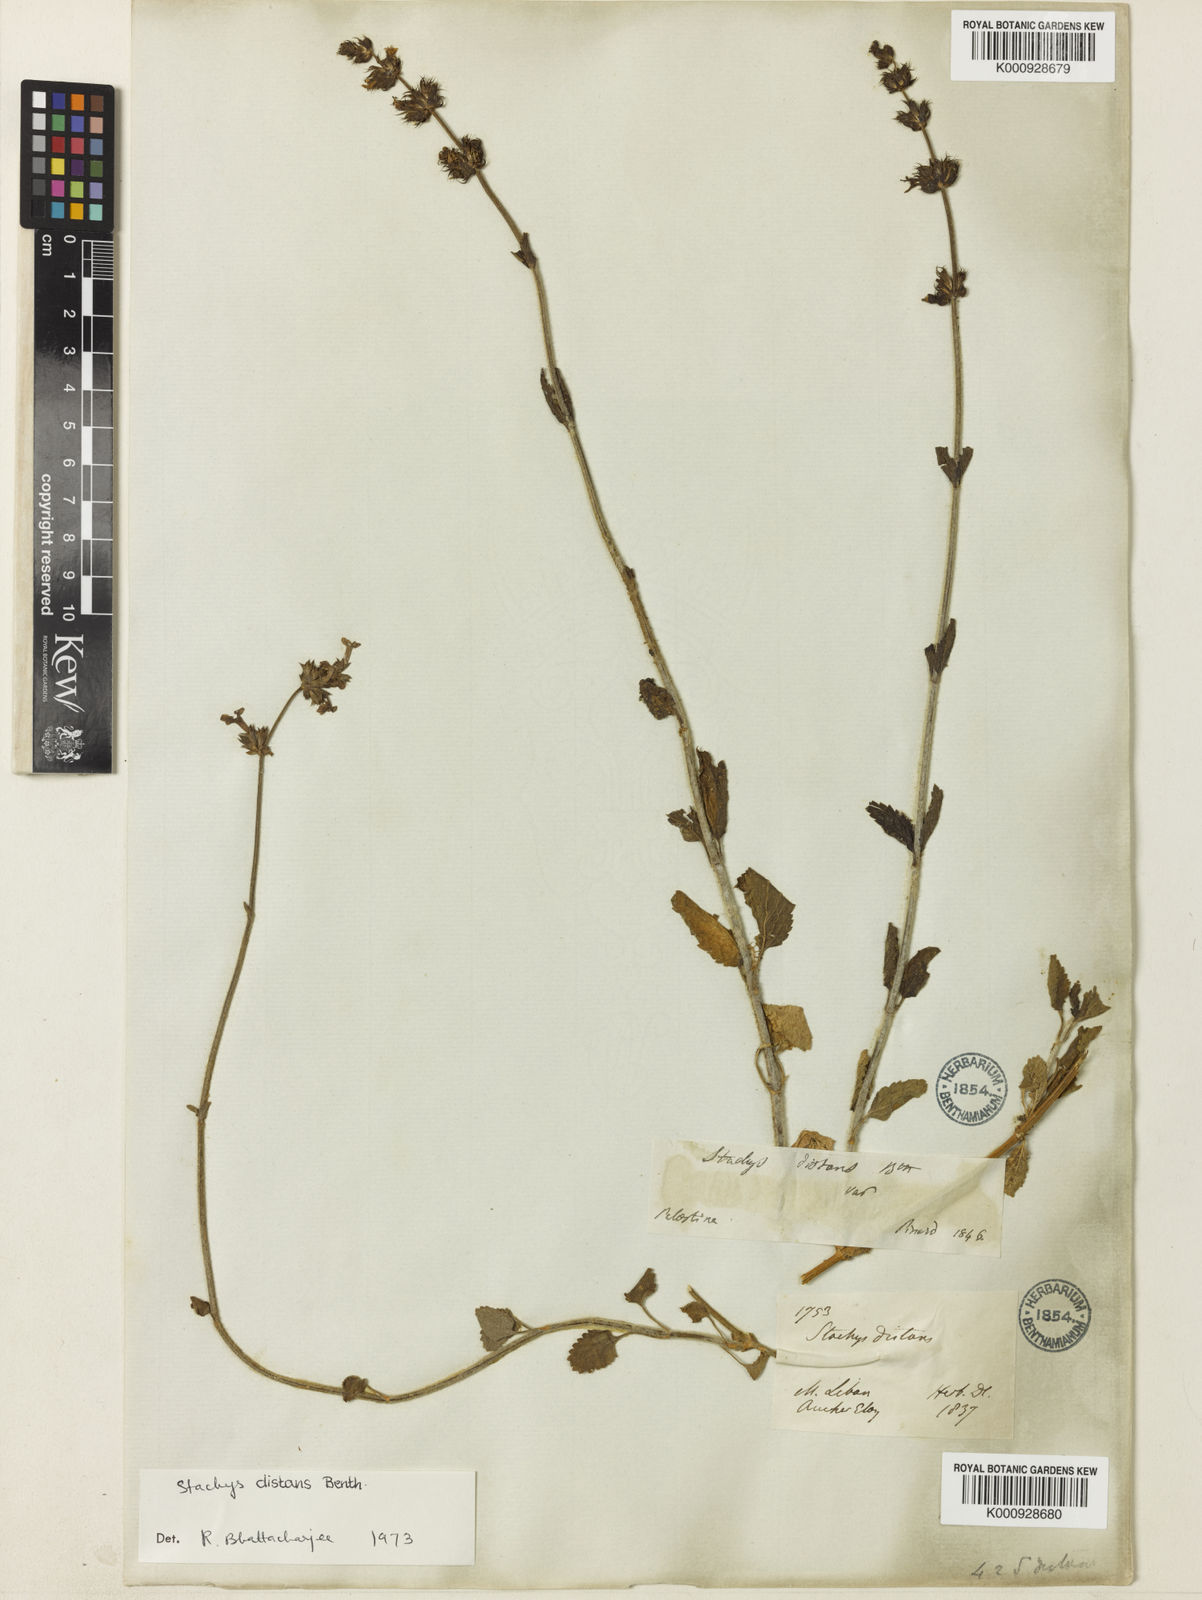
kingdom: Plantae
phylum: Tracheophyta
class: Magnoliopsida
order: Lamiales
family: Lamiaceae
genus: Stachys
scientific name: Stachys distans
